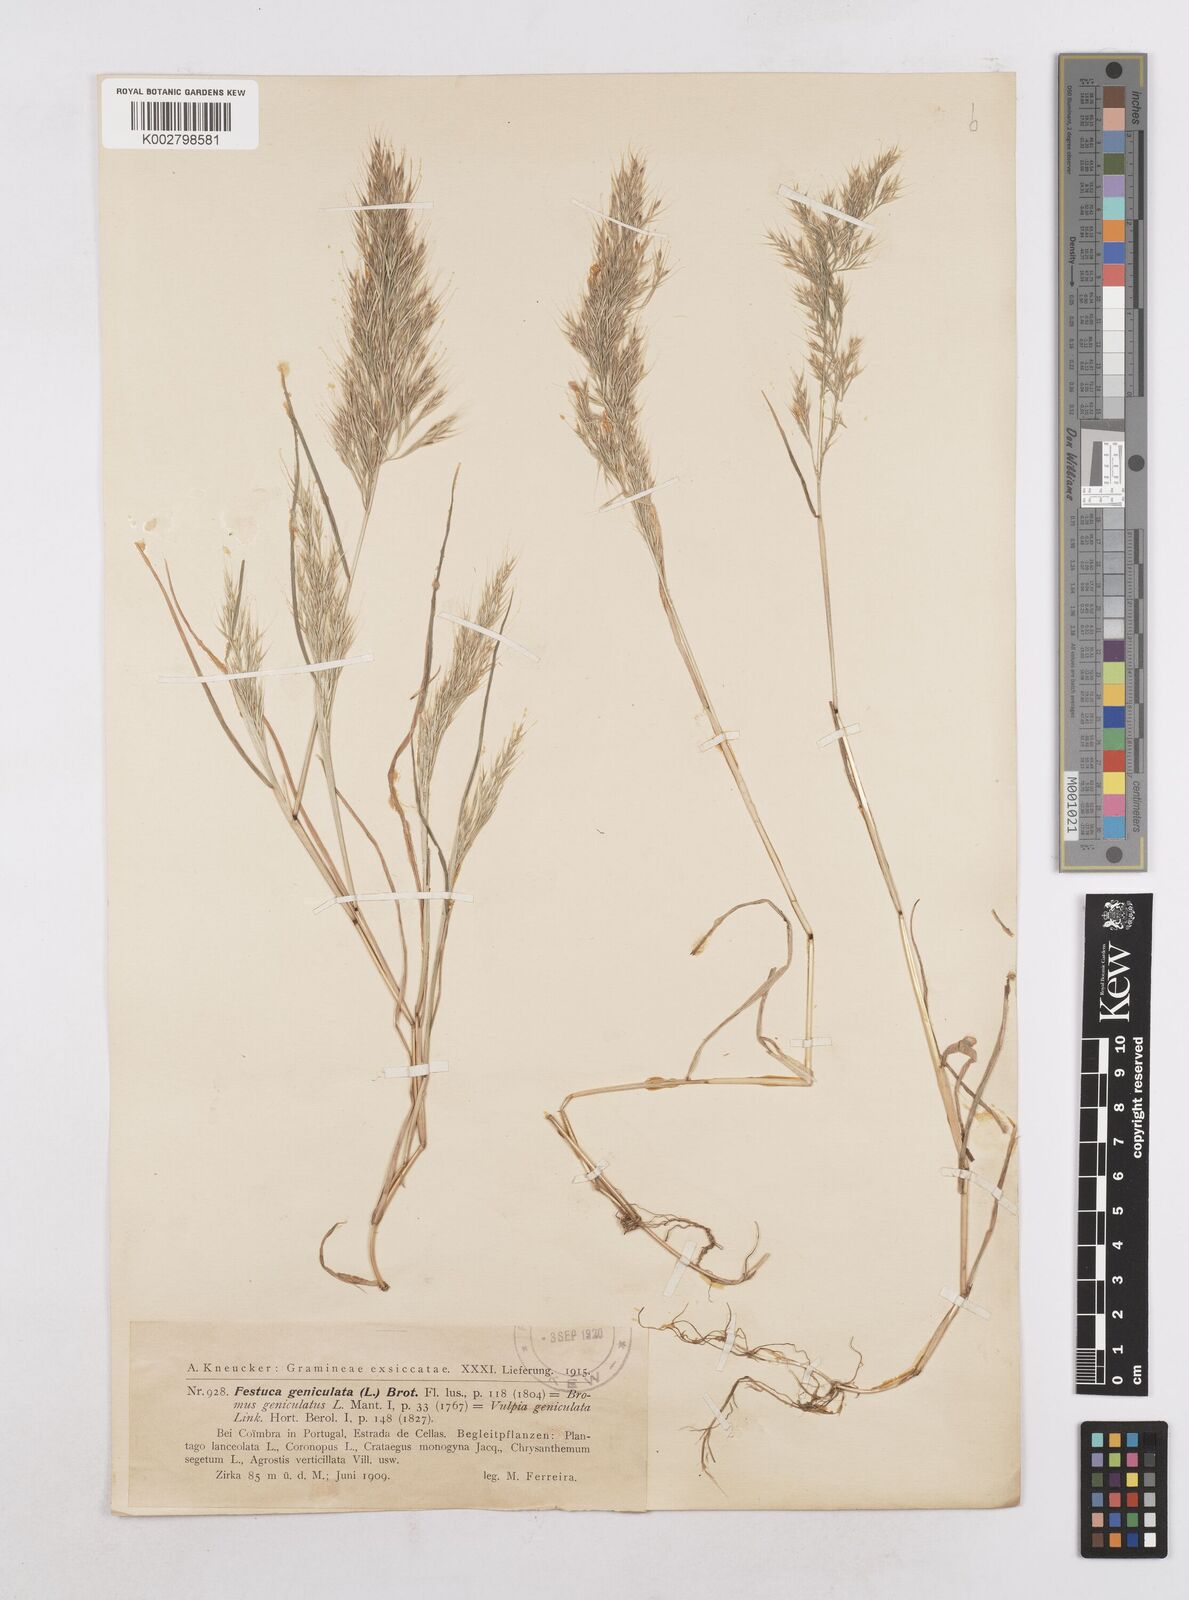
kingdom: Plantae
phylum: Tracheophyta
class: Liliopsida
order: Poales
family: Poaceae
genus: Festuca
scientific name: Festuca geniculata
